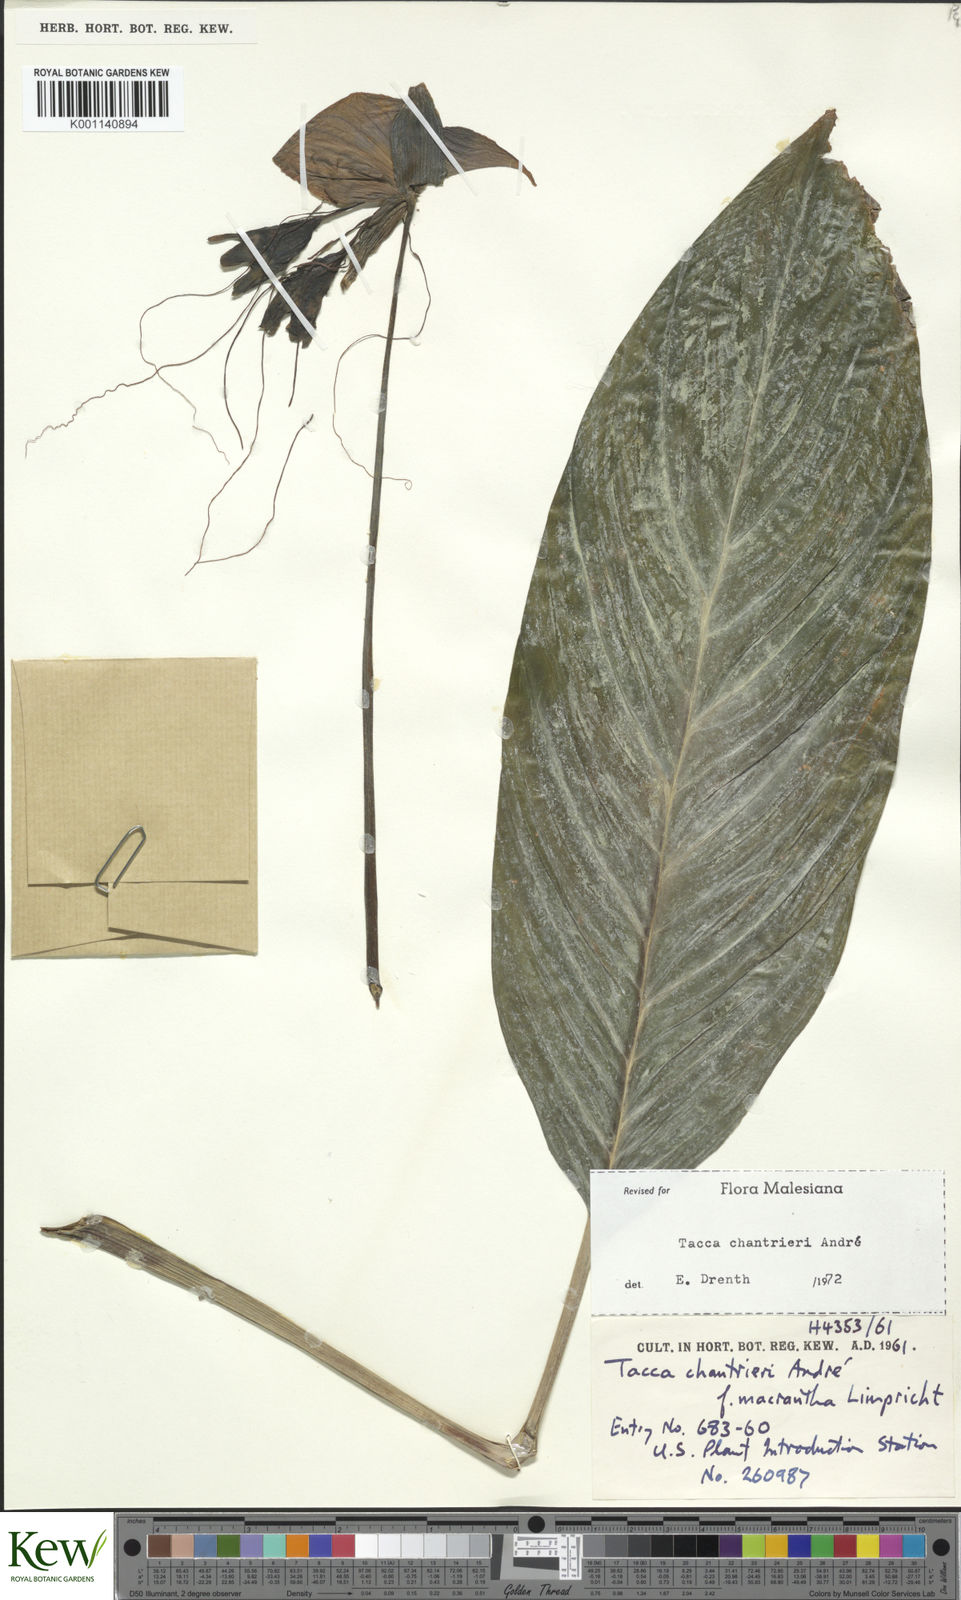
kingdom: Plantae
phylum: Tracheophyta
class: Liliopsida
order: Dioscoreales
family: Dioscoreaceae
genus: Tacca
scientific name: Tacca
